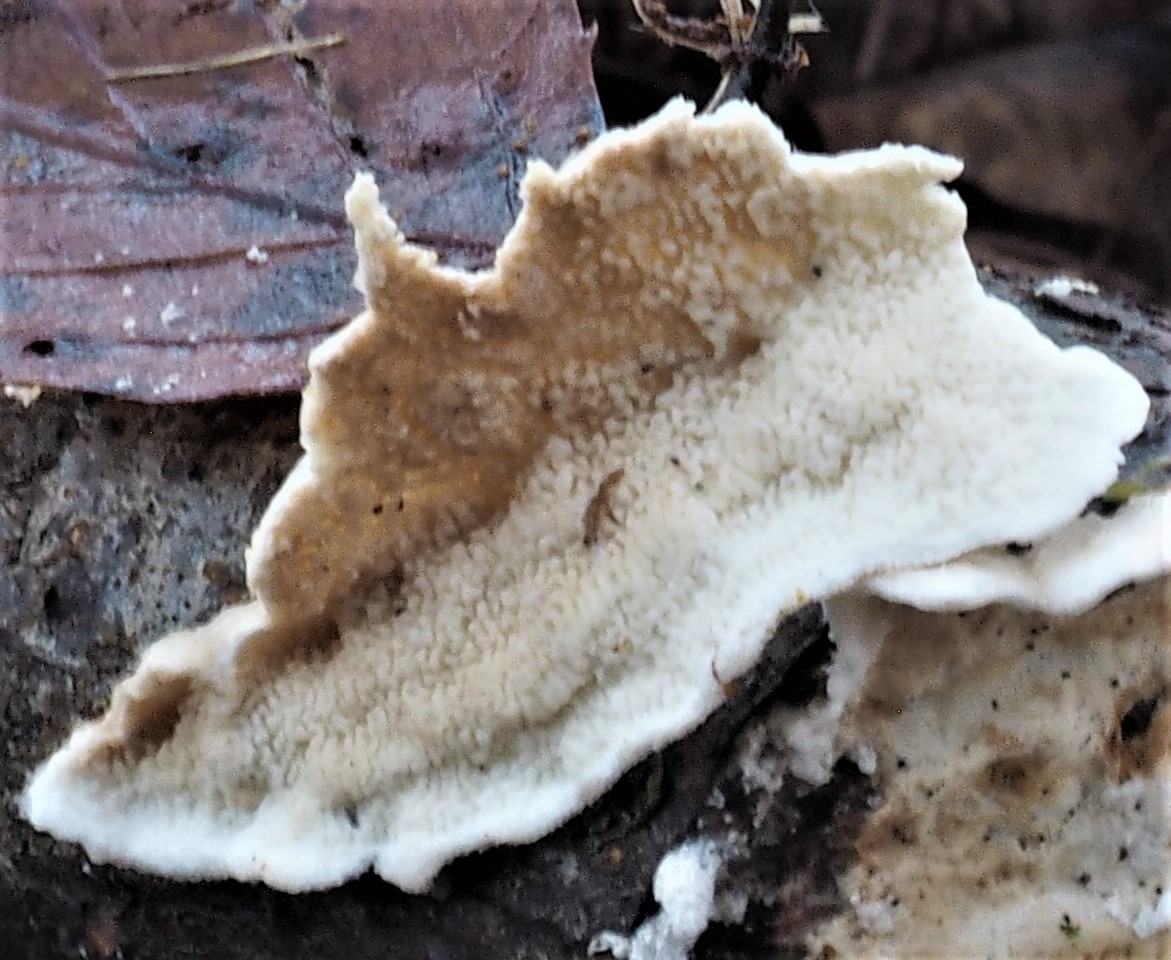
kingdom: Fungi
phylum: Basidiomycota
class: Agaricomycetes
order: Polyporales
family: Irpicaceae
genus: Byssomerulius
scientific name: Byssomerulius corium
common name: læder-åresvamp
